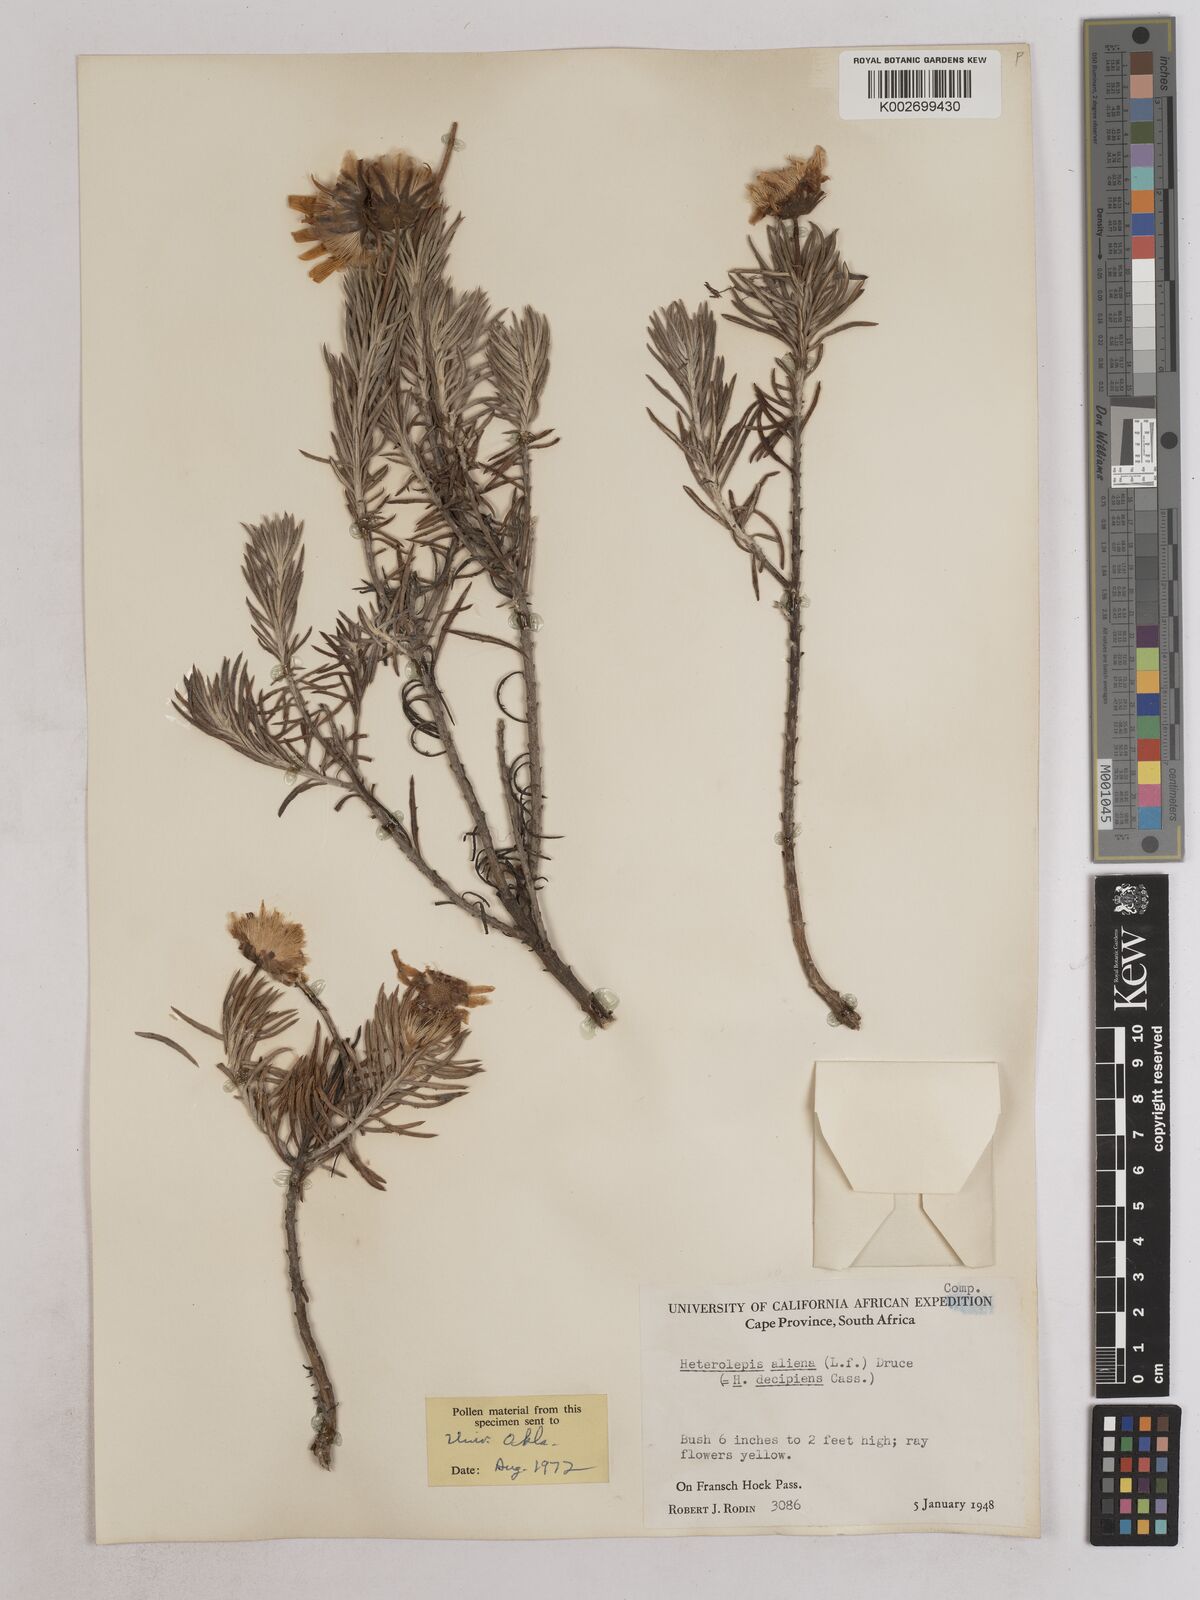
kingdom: Plantae
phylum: Tracheophyta
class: Magnoliopsida
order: Asterales
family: Asteraceae
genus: Heterolepis
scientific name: Heterolepis aliena
